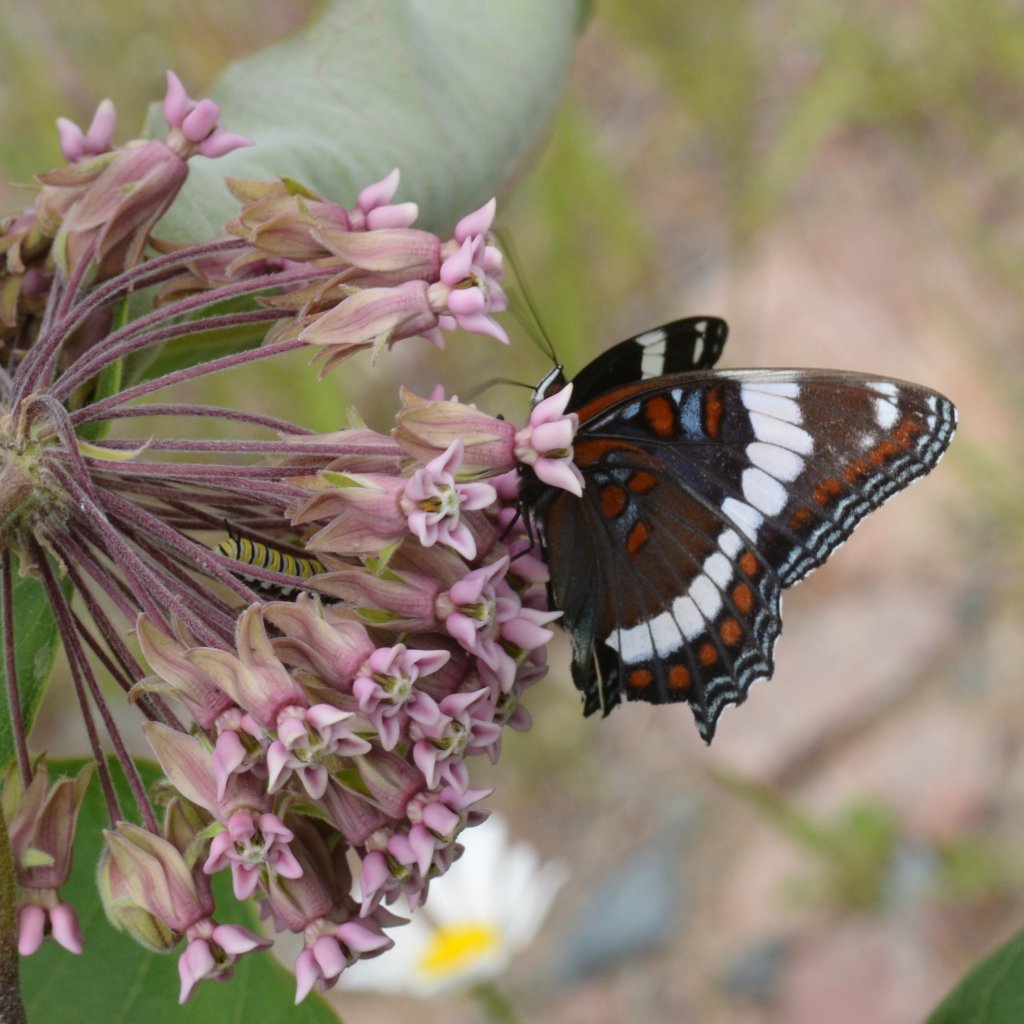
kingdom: Animalia
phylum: Arthropoda
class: Insecta
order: Lepidoptera
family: Nymphalidae
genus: Limenitis
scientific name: Limenitis arthemis
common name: Red-spotted Admiral
